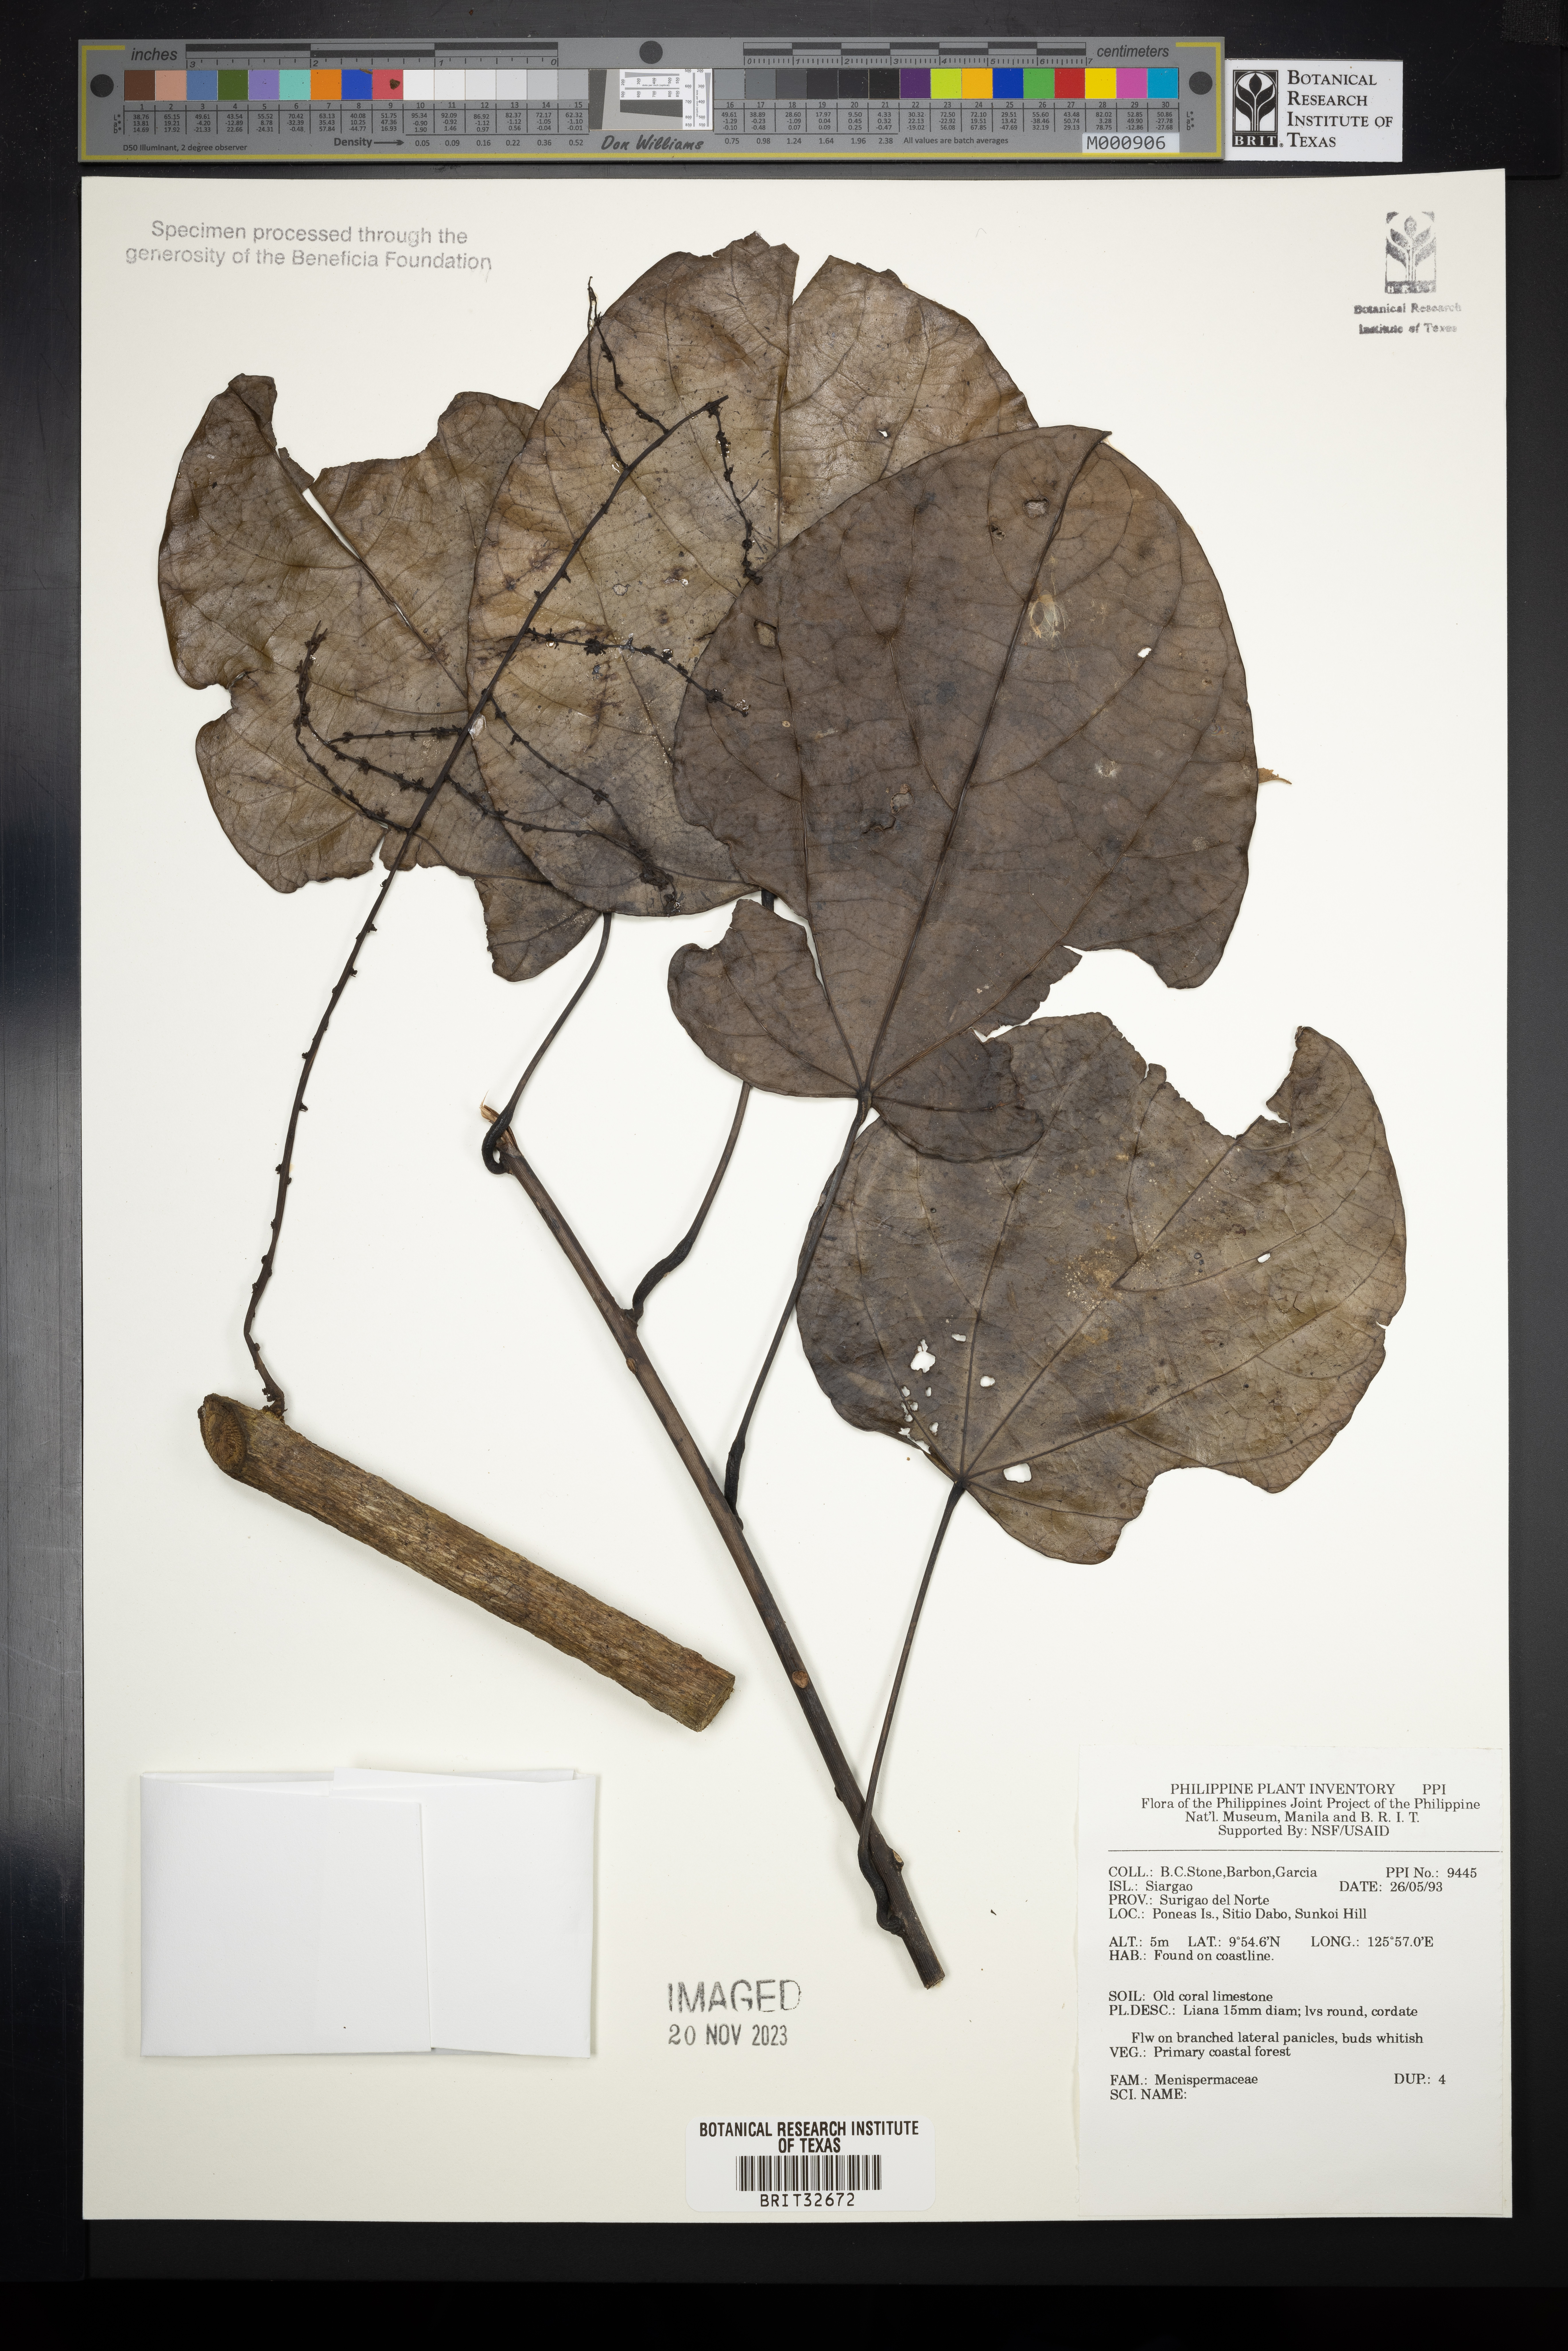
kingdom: Plantae
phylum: Tracheophyta
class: Magnoliopsida
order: Ranunculales
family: Menispermaceae
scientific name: Menispermaceae
